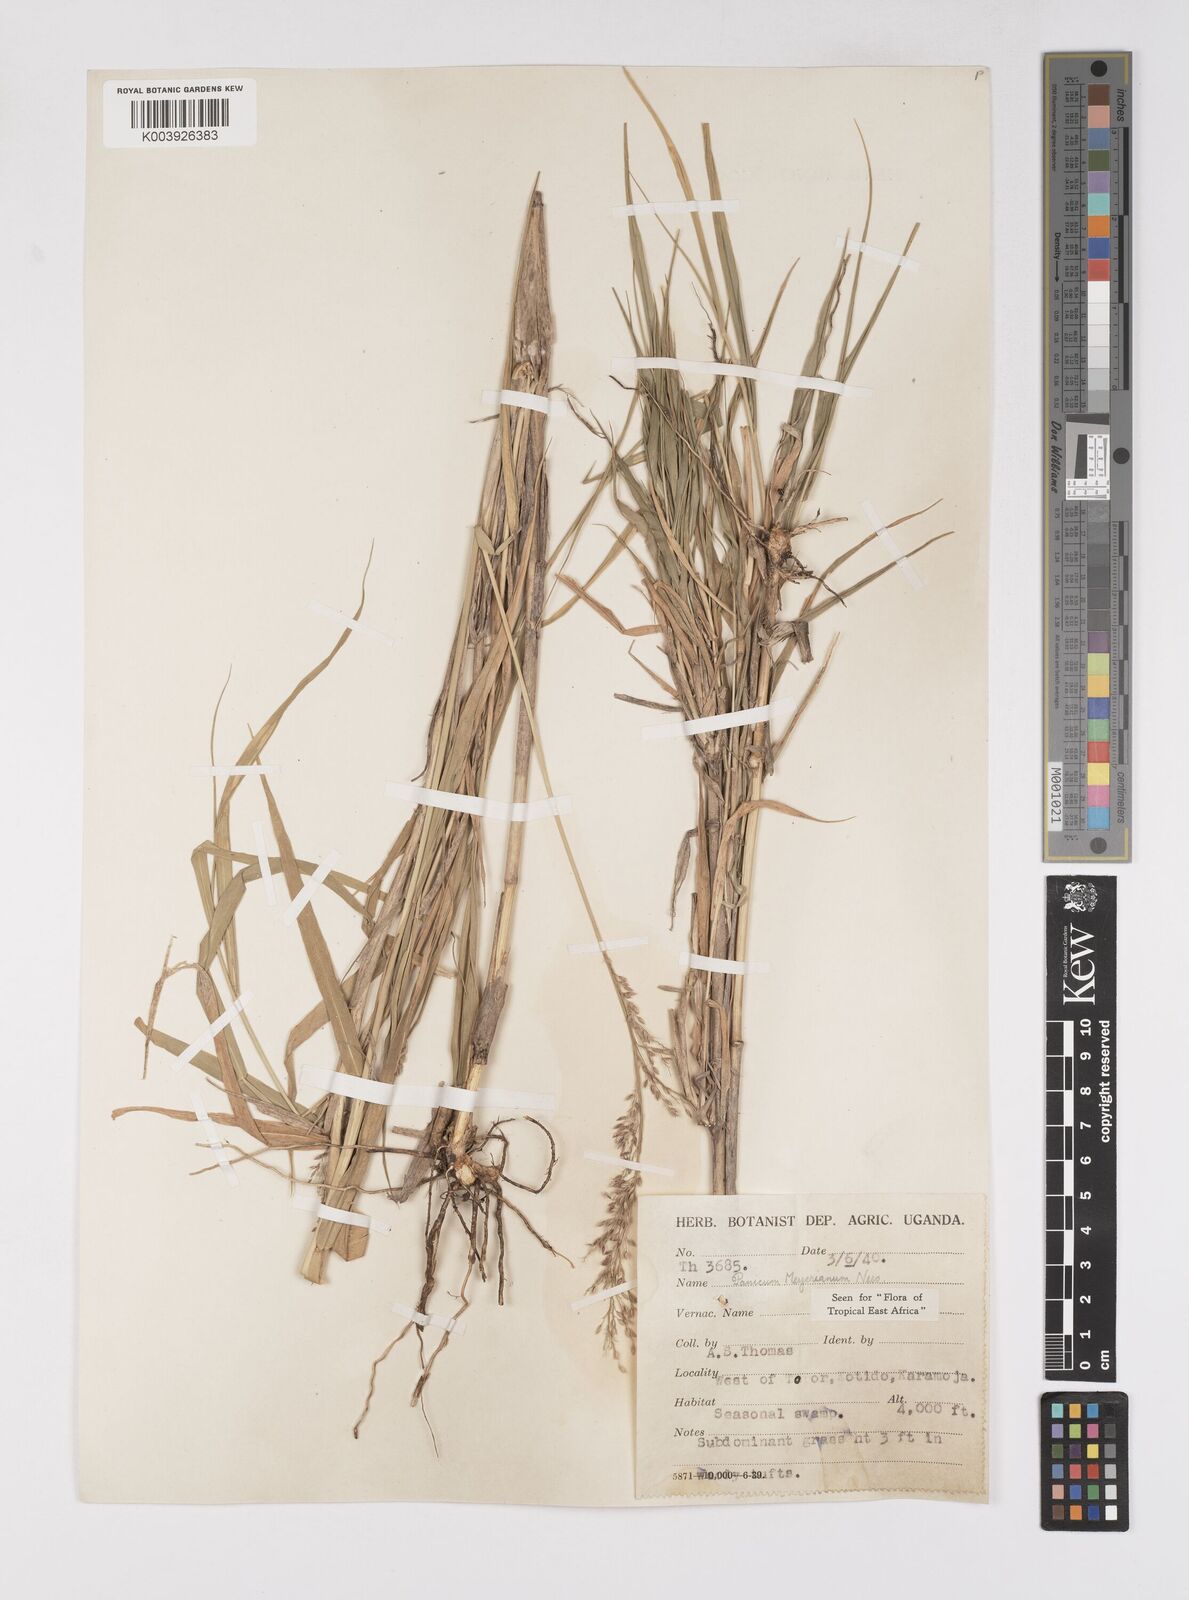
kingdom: Plantae
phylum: Tracheophyta
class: Liliopsida
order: Poales
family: Poaceae
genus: Eriochloa
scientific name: Eriochloa meyeriana
